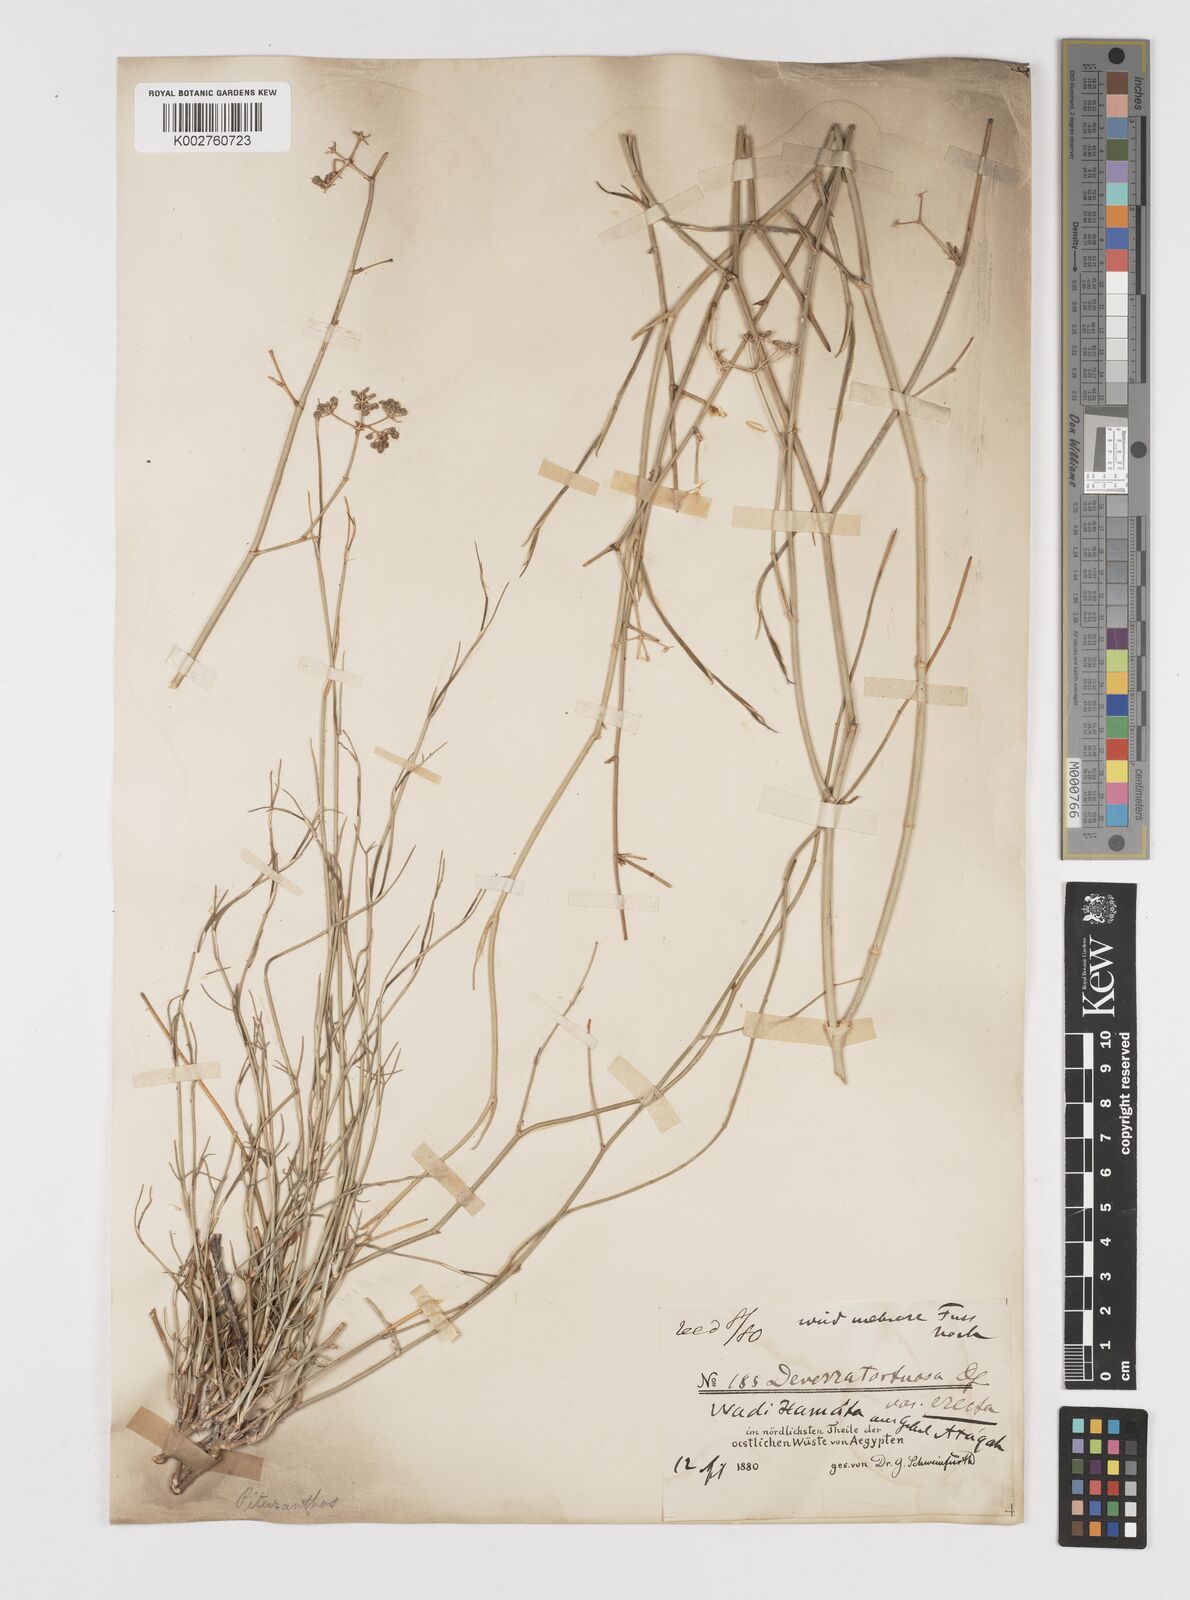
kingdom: Plantae
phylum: Tracheophyta
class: Magnoliopsida
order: Apiales
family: Apiaceae
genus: Deverra
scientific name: Deverra tortuosa
